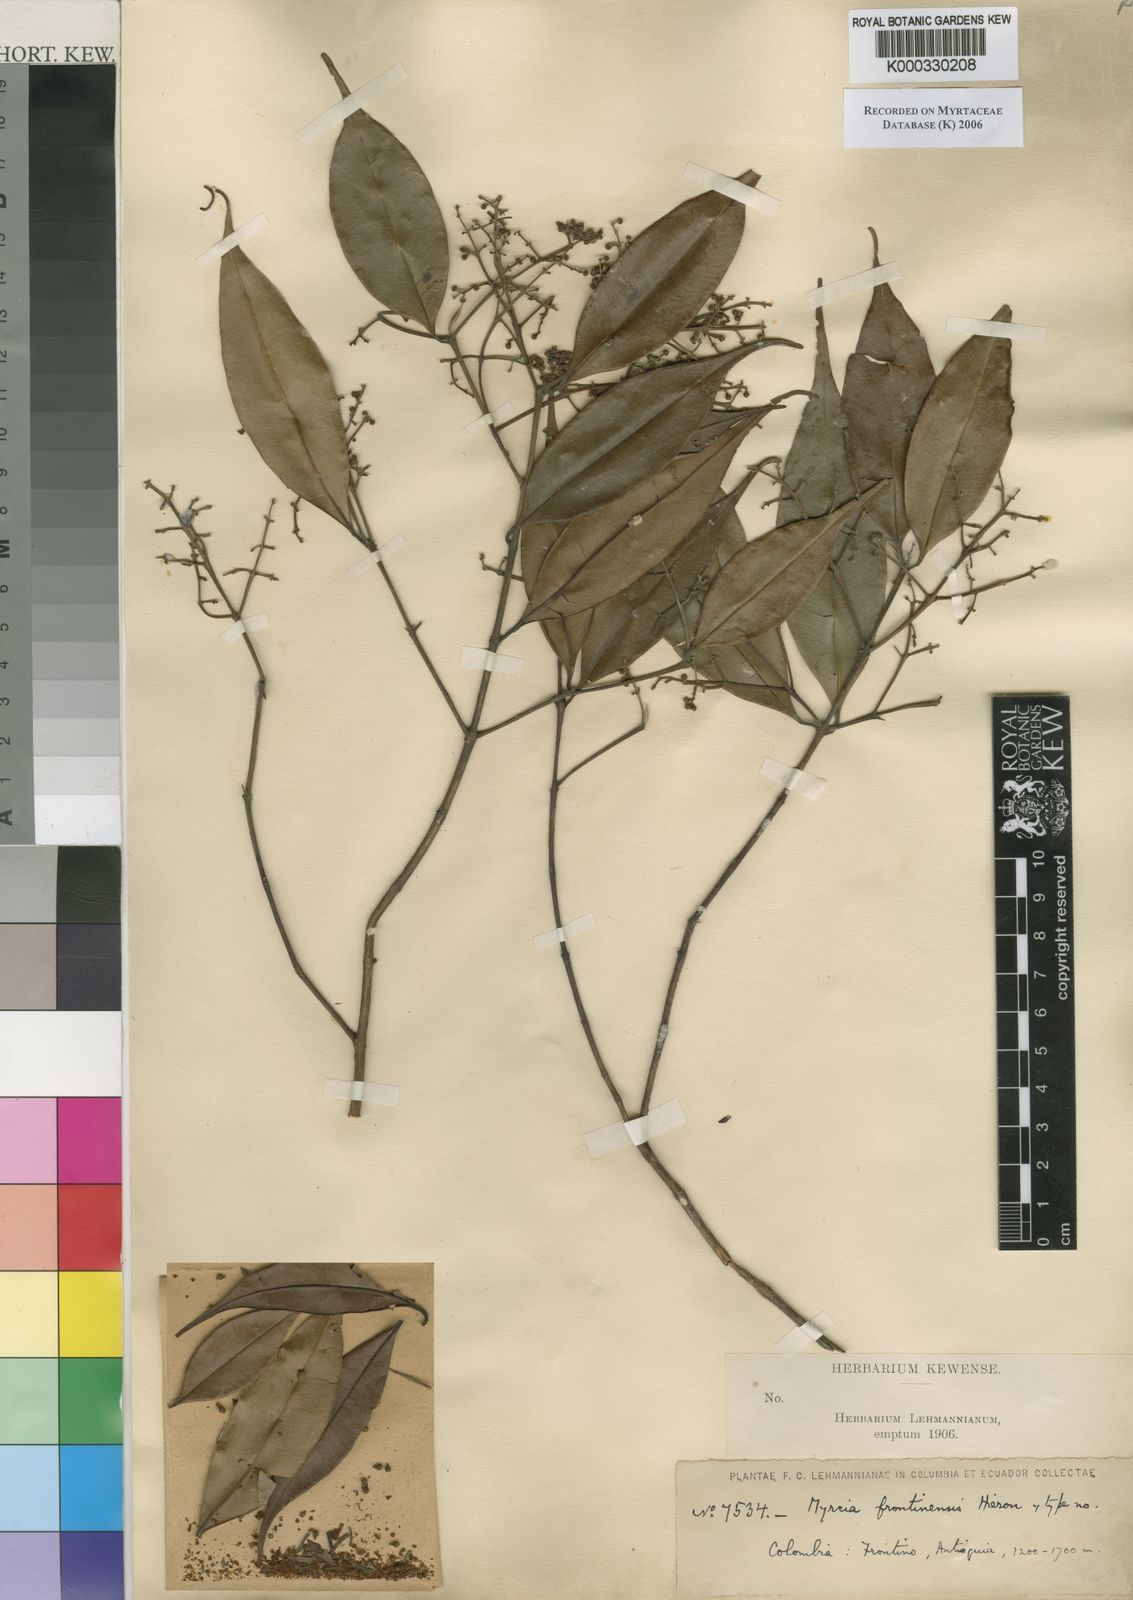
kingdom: Plantae
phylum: Tracheophyta
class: Magnoliopsida
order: Myrtales
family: Myrtaceae
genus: Myrcia
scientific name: Myrcia paivae
